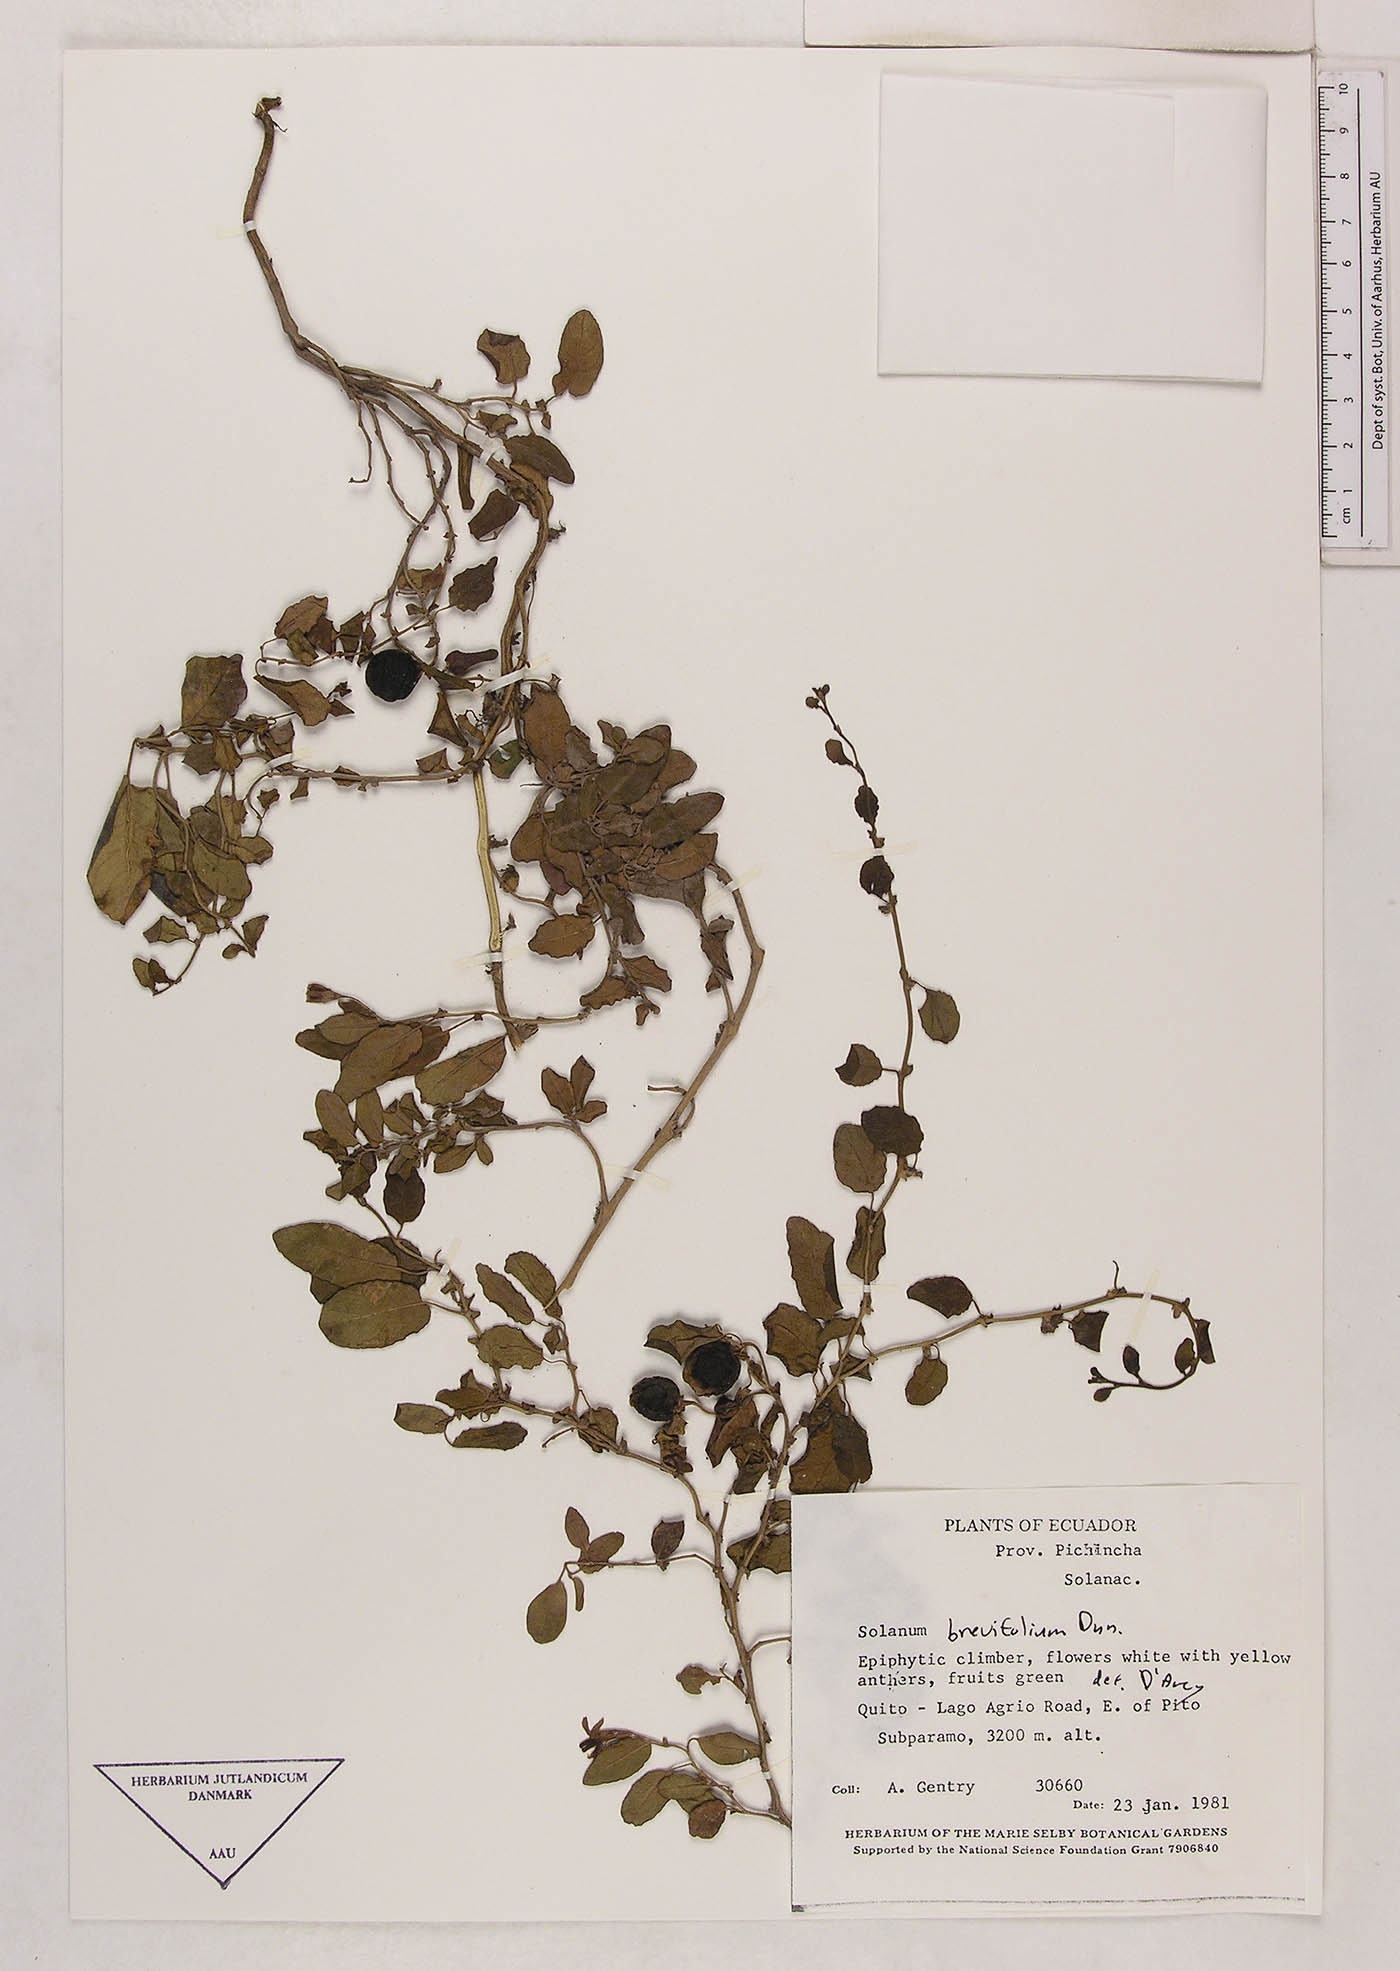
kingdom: Plantae
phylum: Tracheophyta
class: Magnoliopsida
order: Solanales
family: Solanaceae
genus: Solanum
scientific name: Solanum brevifolium
